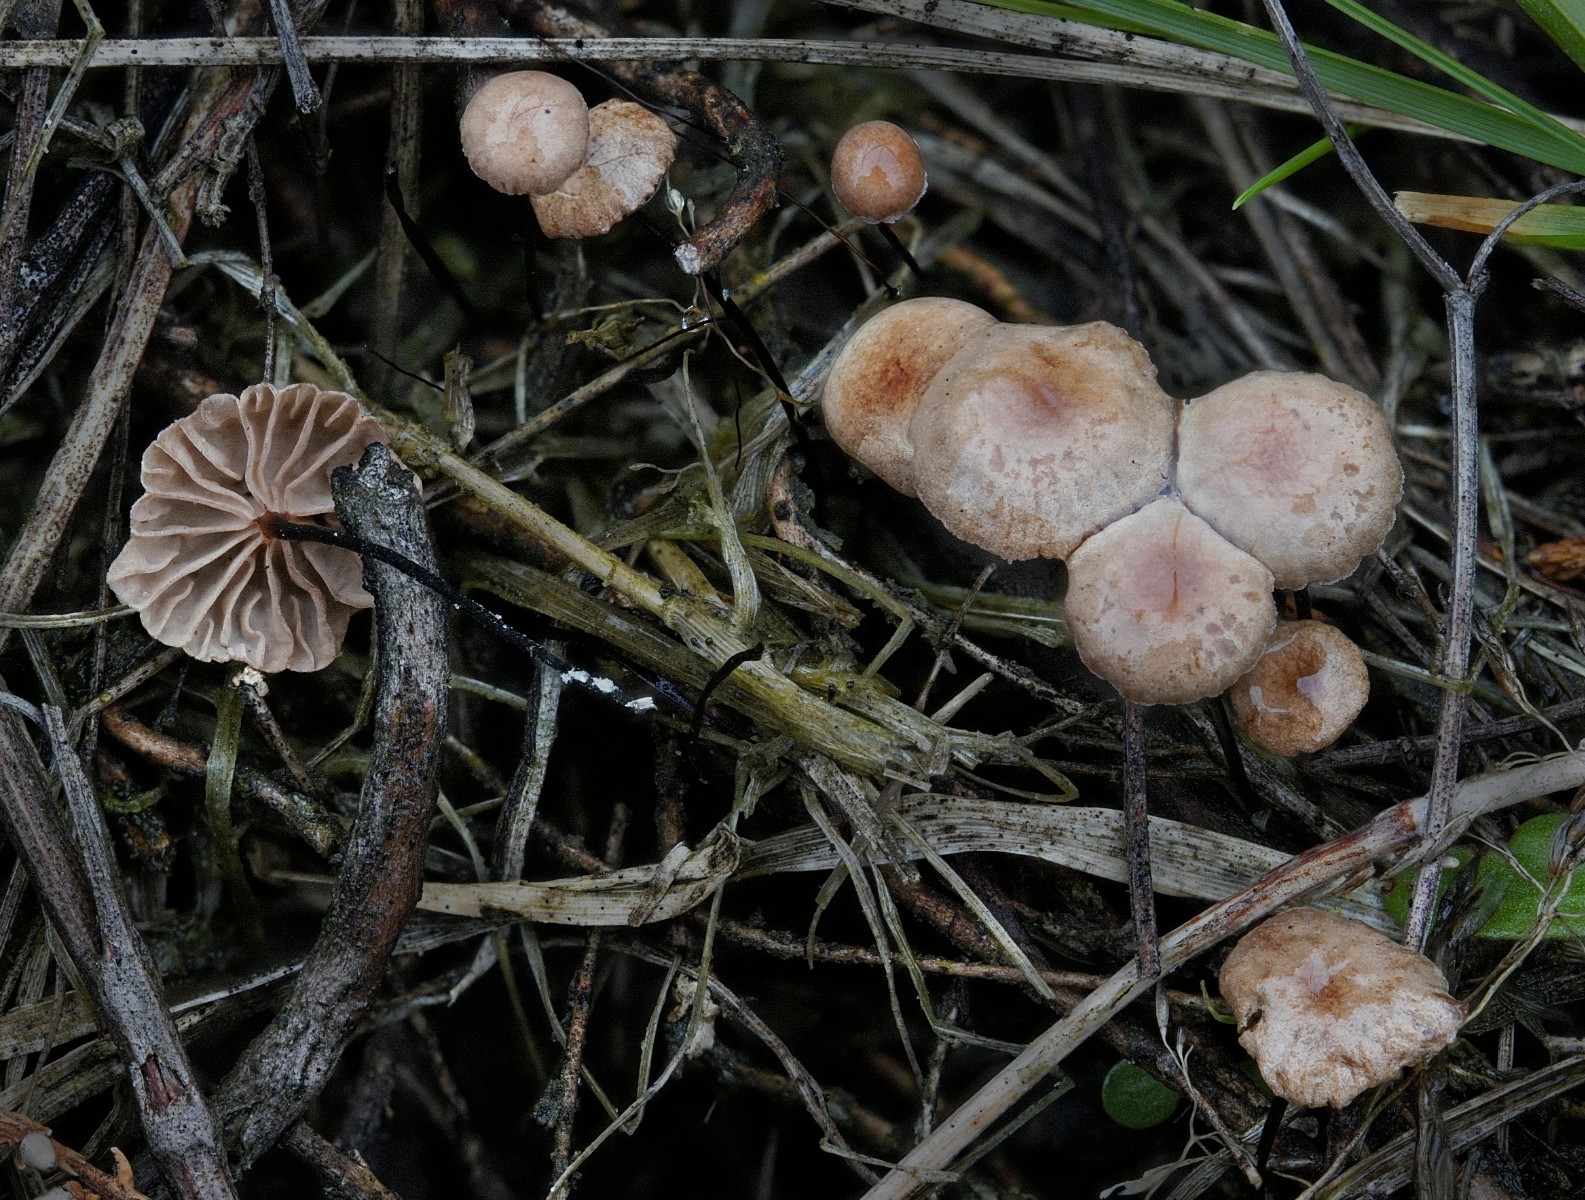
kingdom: Fungi
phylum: Basidiomycota
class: Agaricomycetes
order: Agaricales
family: Omphalotaceae
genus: Gymnopus
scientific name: Gymnopus androsaceus
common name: trådstokket fladhat
